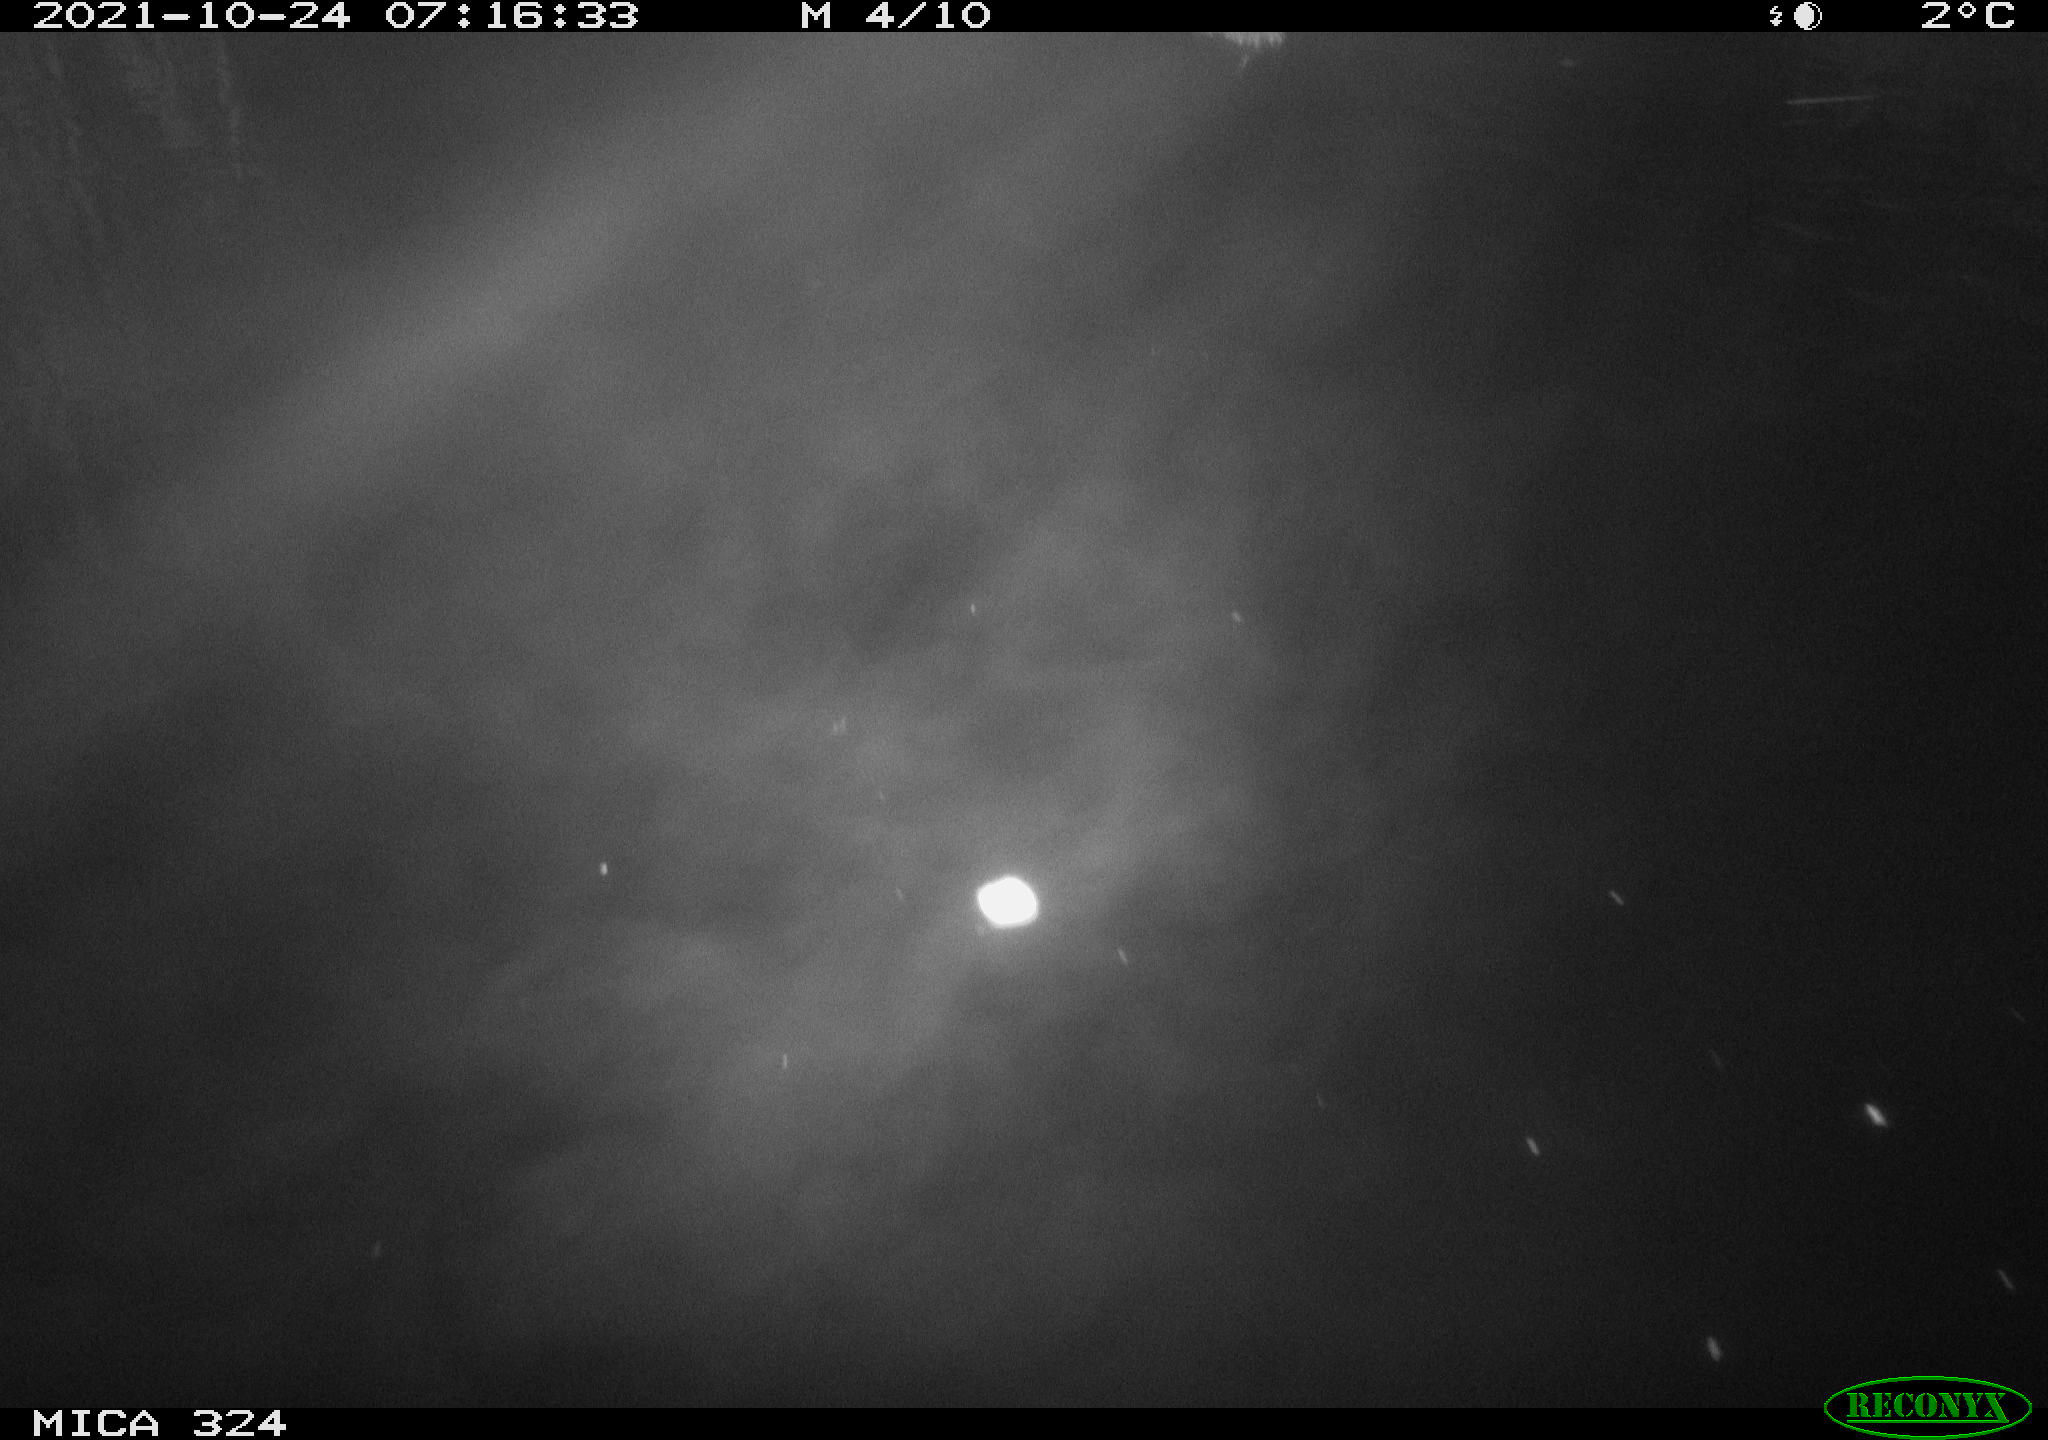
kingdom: Animalia
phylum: Chordata
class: Mammalia
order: Rodentia
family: Cricetidae
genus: Ondatra
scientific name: Ondatra zibethicus
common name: Muskrat
